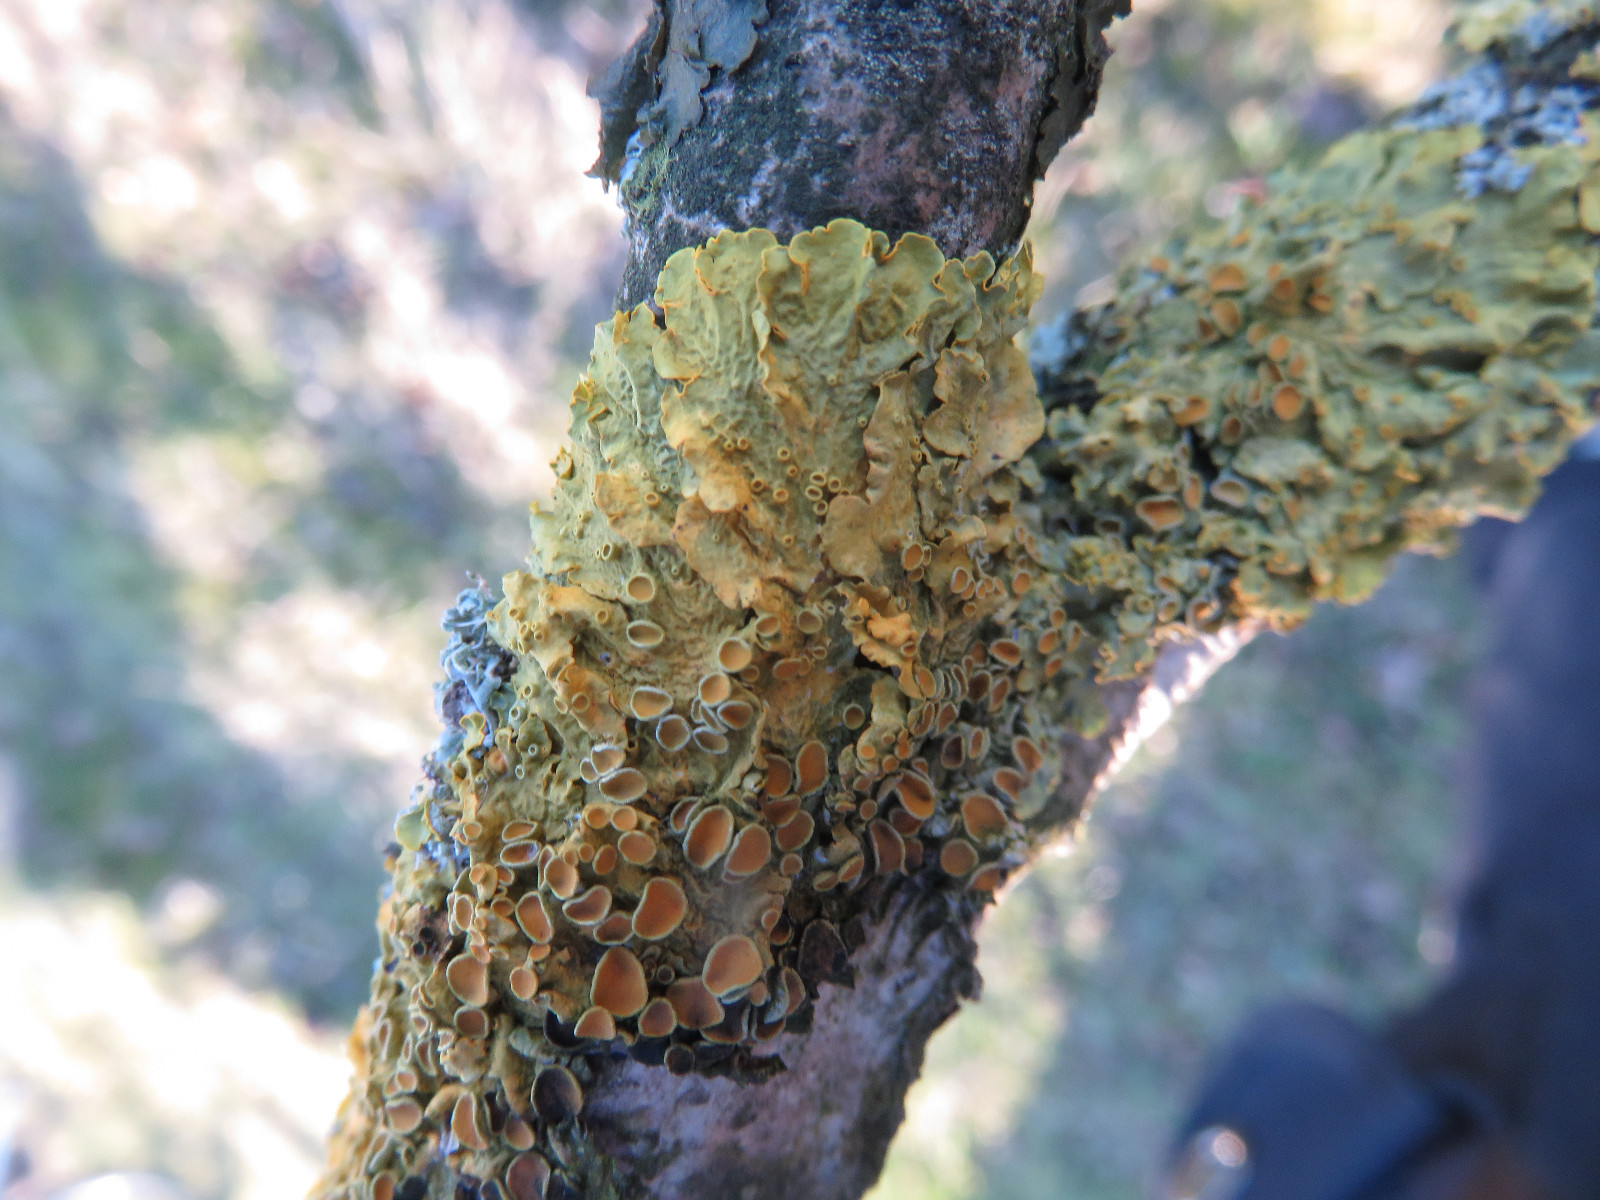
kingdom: Fungi
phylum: Ascomycota
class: Lecanoromycetes
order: Teloschistales
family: Teloschistaceae
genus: Xanthoria
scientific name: Xanthoria parietina
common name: almindelig væggelav
